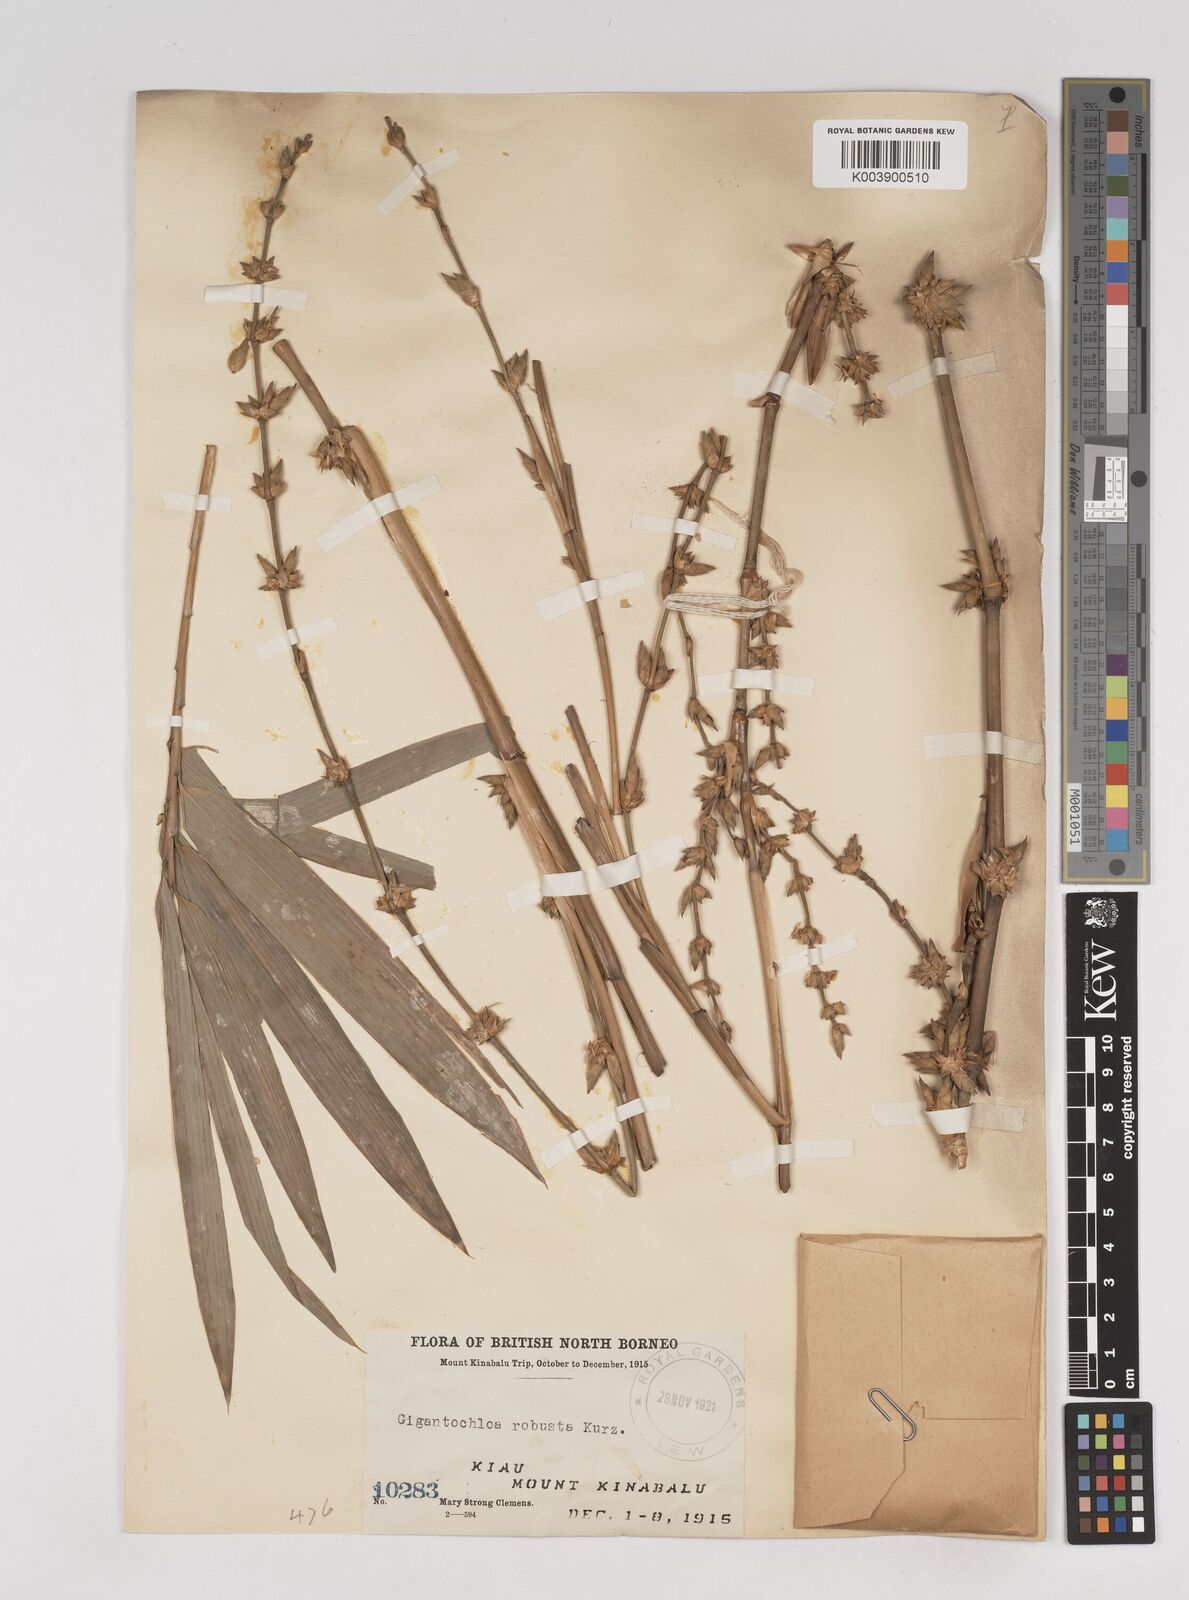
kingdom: Plantae
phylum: Tracheophyta
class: Liliopsida
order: Poales
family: Poaceae
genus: Gigantochloa
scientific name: Gigantochloa robusta
